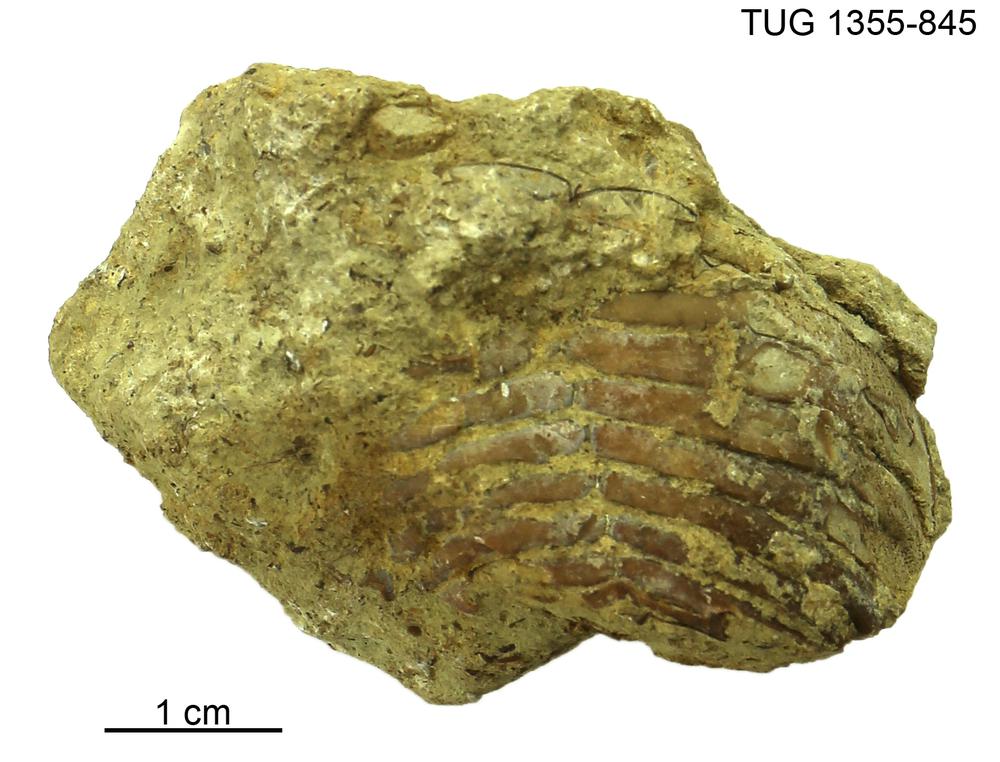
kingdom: Animalia
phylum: Arthropoda
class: Trilobita
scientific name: Trilobita
